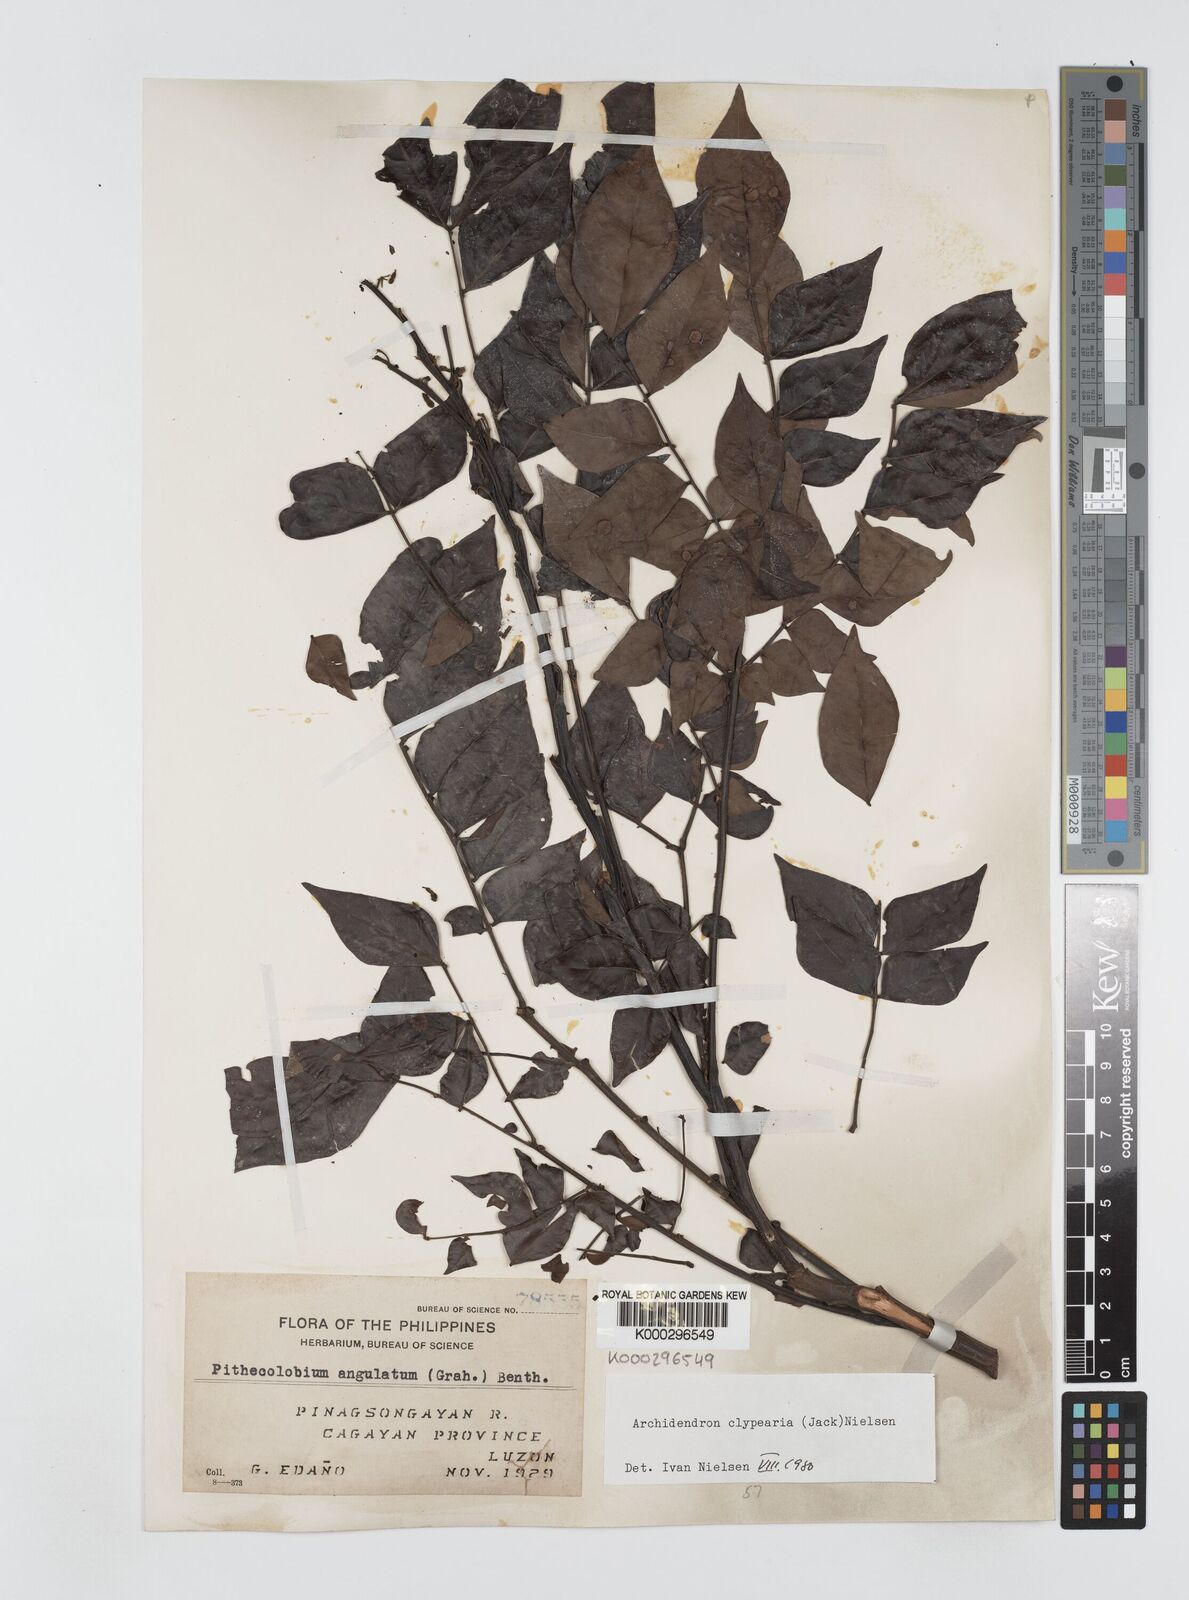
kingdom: Plantae
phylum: Tracheophyta
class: Magnoliopsida
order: Fabales
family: Fabaceae
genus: Archidendron
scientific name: Archidendron clypearia
